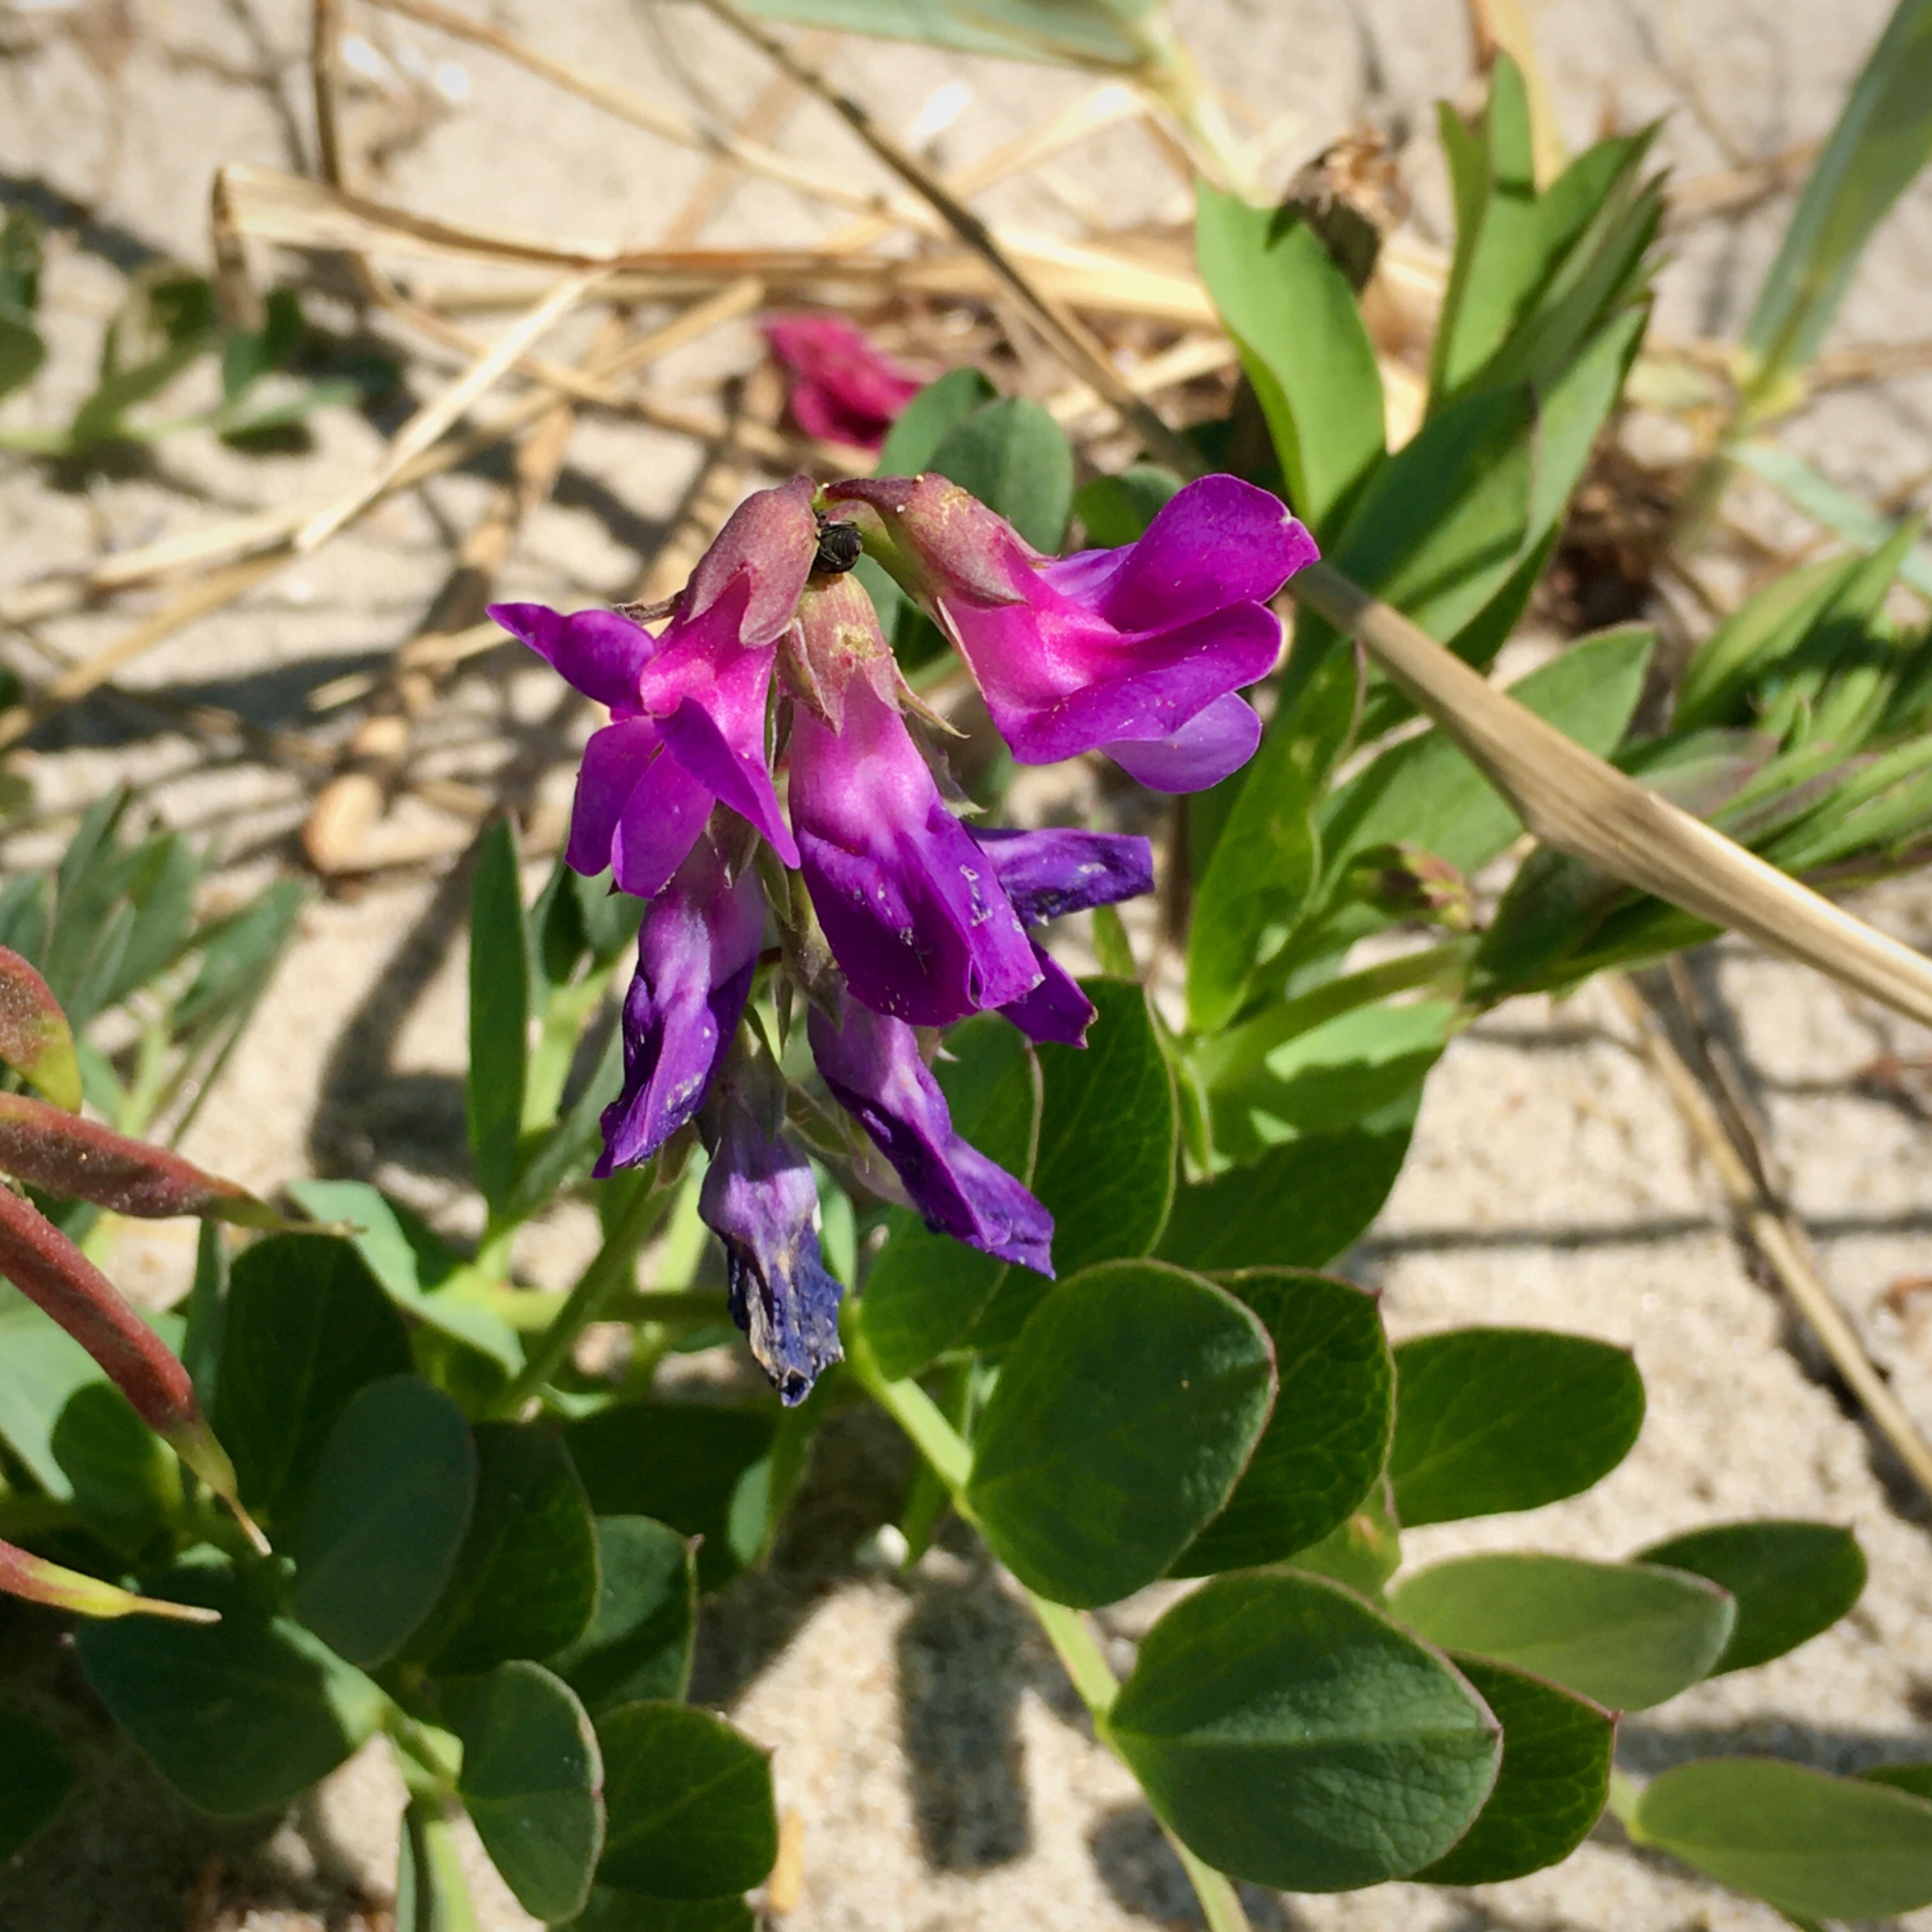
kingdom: Plantae
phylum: Tracheophyta
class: Magnoliopsida
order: Fabales
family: Fabaceae
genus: Lathyrus
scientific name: Lathyrus japonicus
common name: Strand-fladbælg
